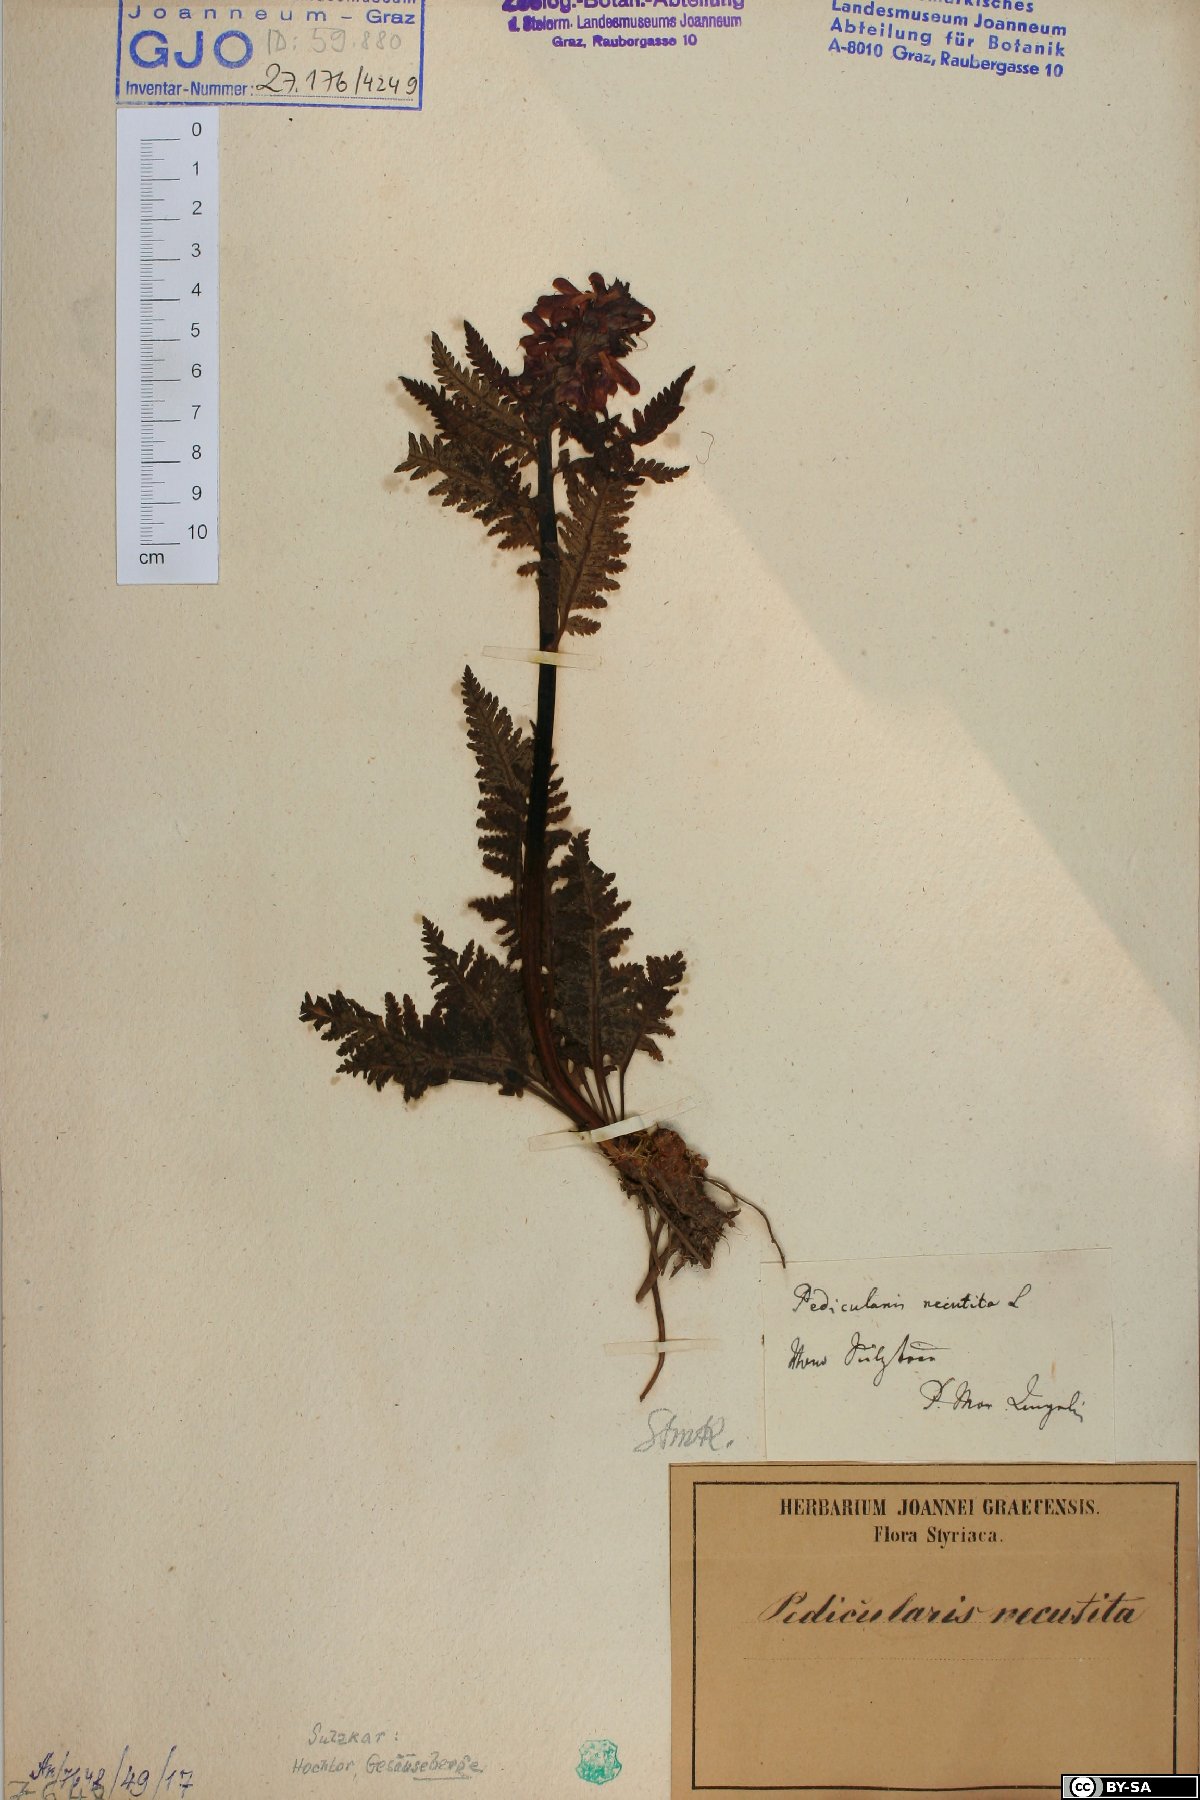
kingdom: Plantae
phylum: Tracheophyta
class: Magnoliopsida
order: Lamiales
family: Orobanchaceae
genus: Pedicularis
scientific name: Pedicularis recutita
